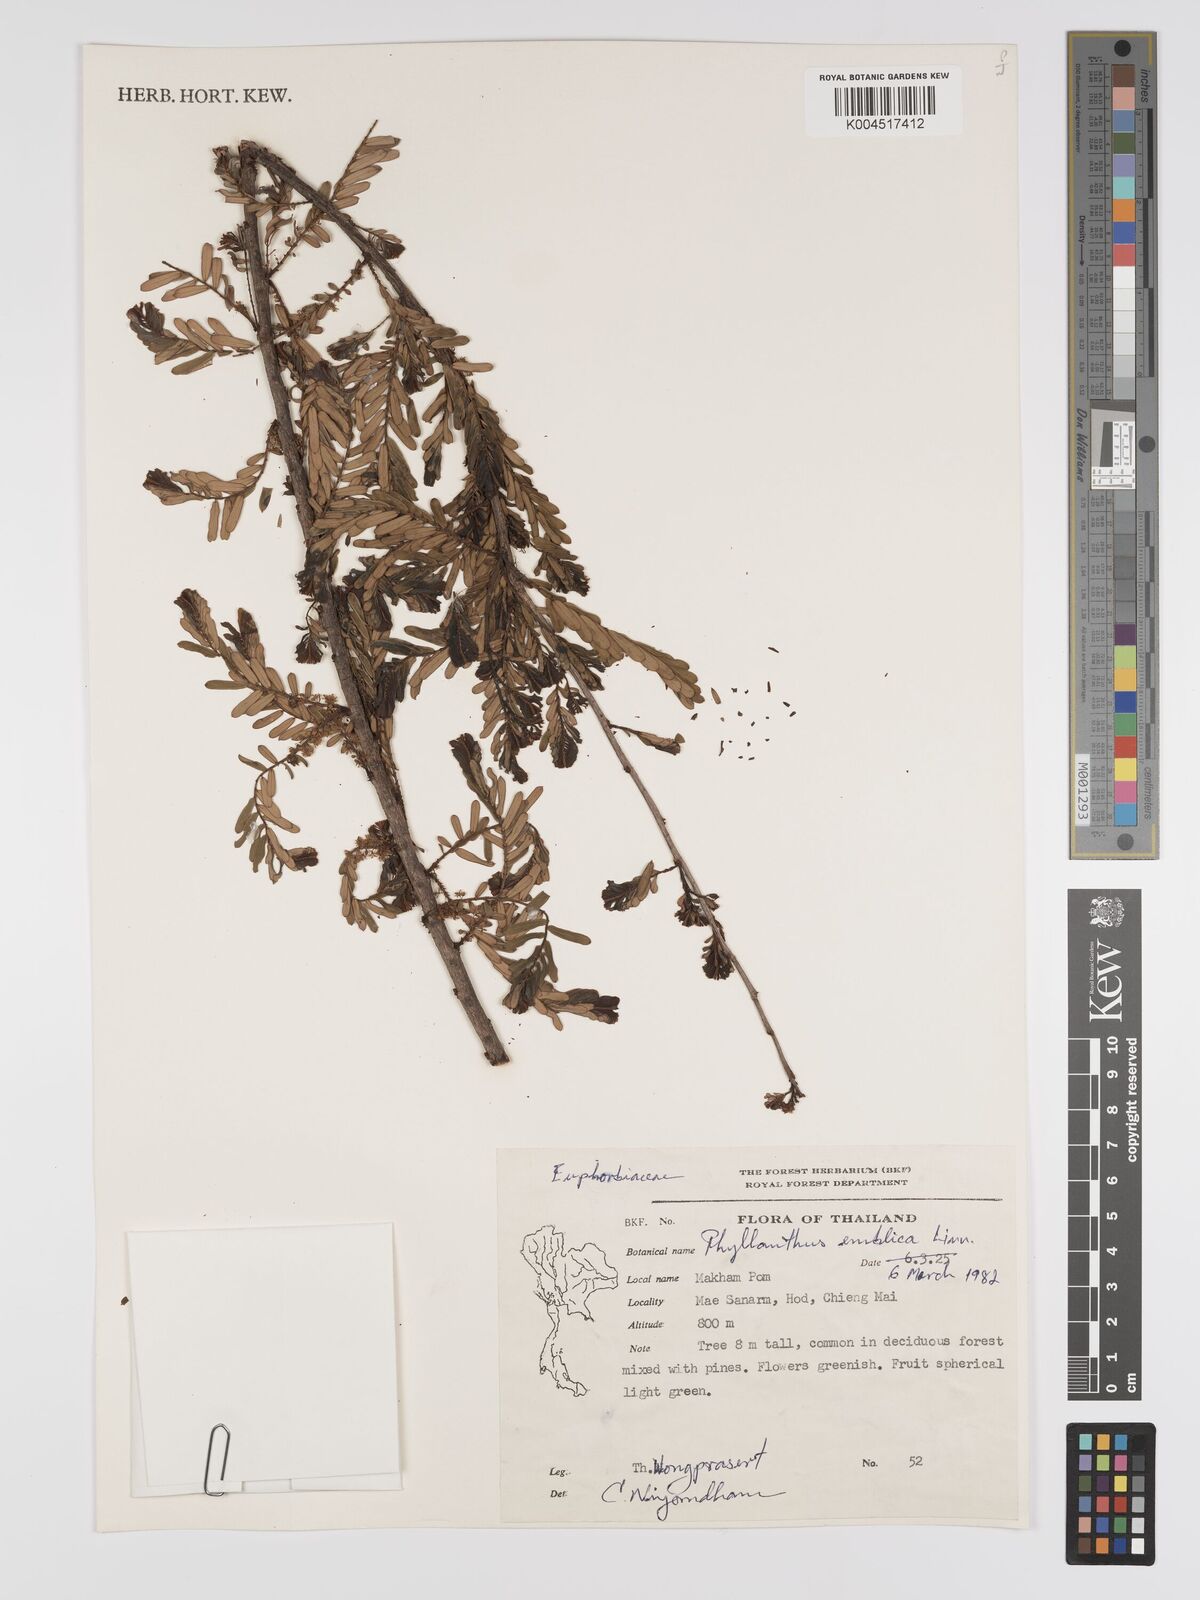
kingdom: Plantae
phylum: Tracheophyta
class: Magnoliopsida
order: Malpighiales
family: Phyllanthaceae
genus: Phyllanthus
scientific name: Phyllanthus emblica
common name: Indian gooseberry
